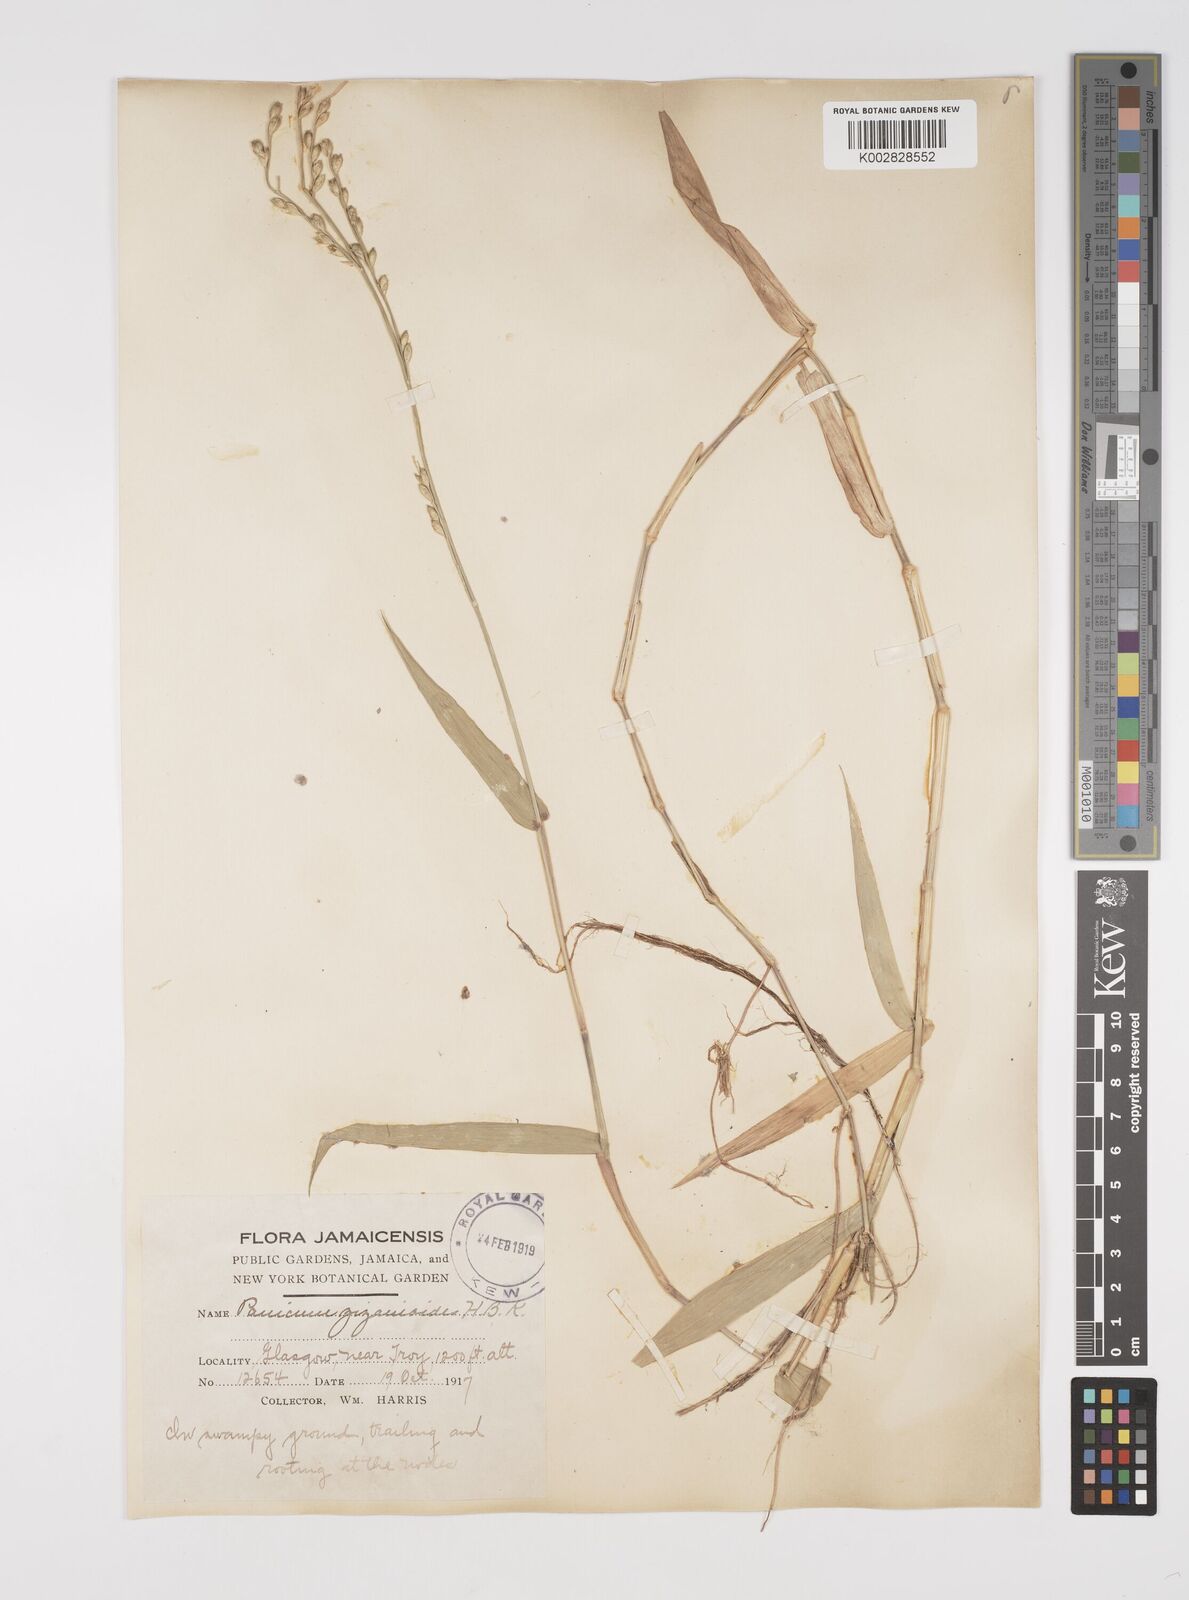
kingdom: Plantae
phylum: Tracheophyta
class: Liliopsida
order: Poales
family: Poaceae
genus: Acroceras
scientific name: Acroceras zizanioides
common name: Oat grass
